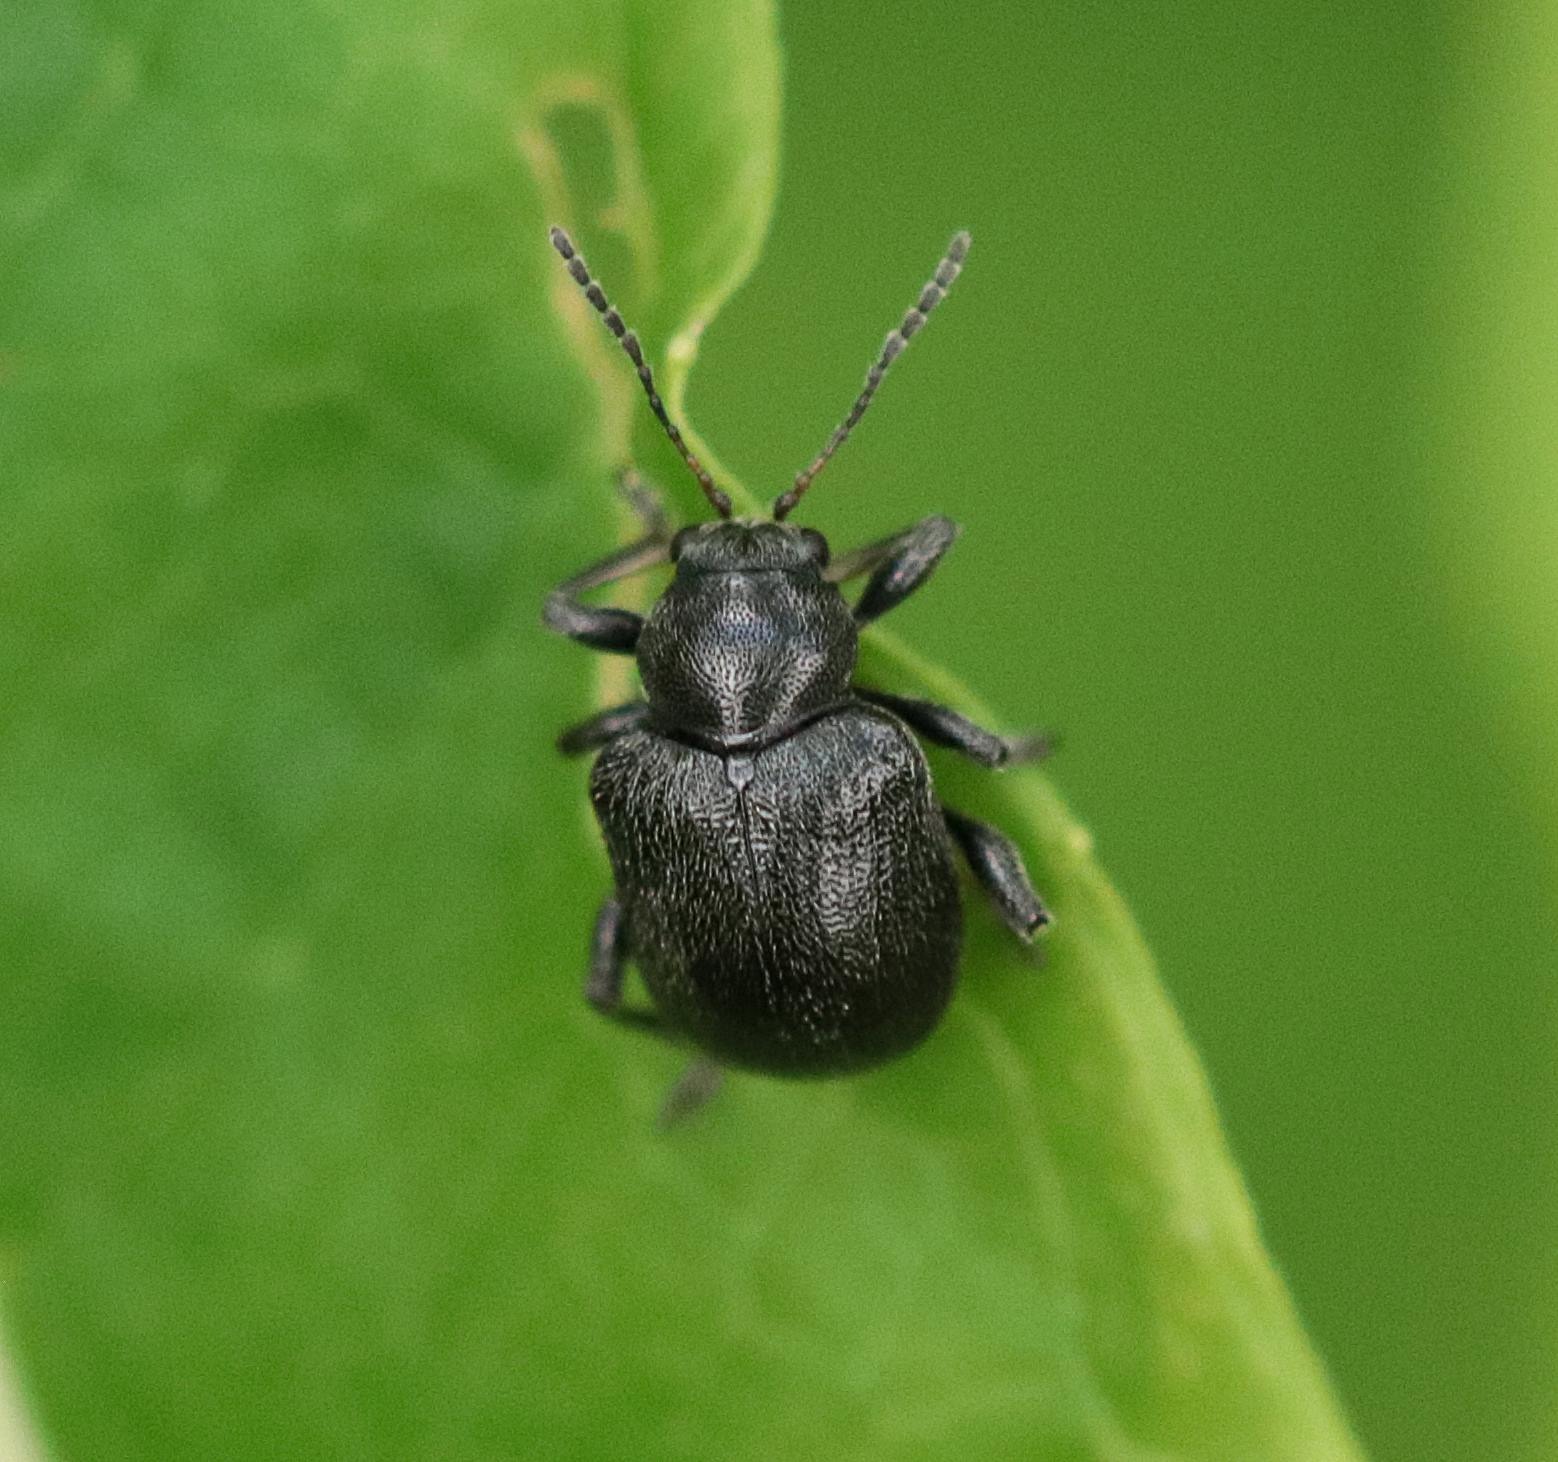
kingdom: Animalia
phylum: Arthropoda
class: Insecta
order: Coleoptera
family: Chrysomelidae
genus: Bromius
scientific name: Bromius obscurus
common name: Gederamsbille
